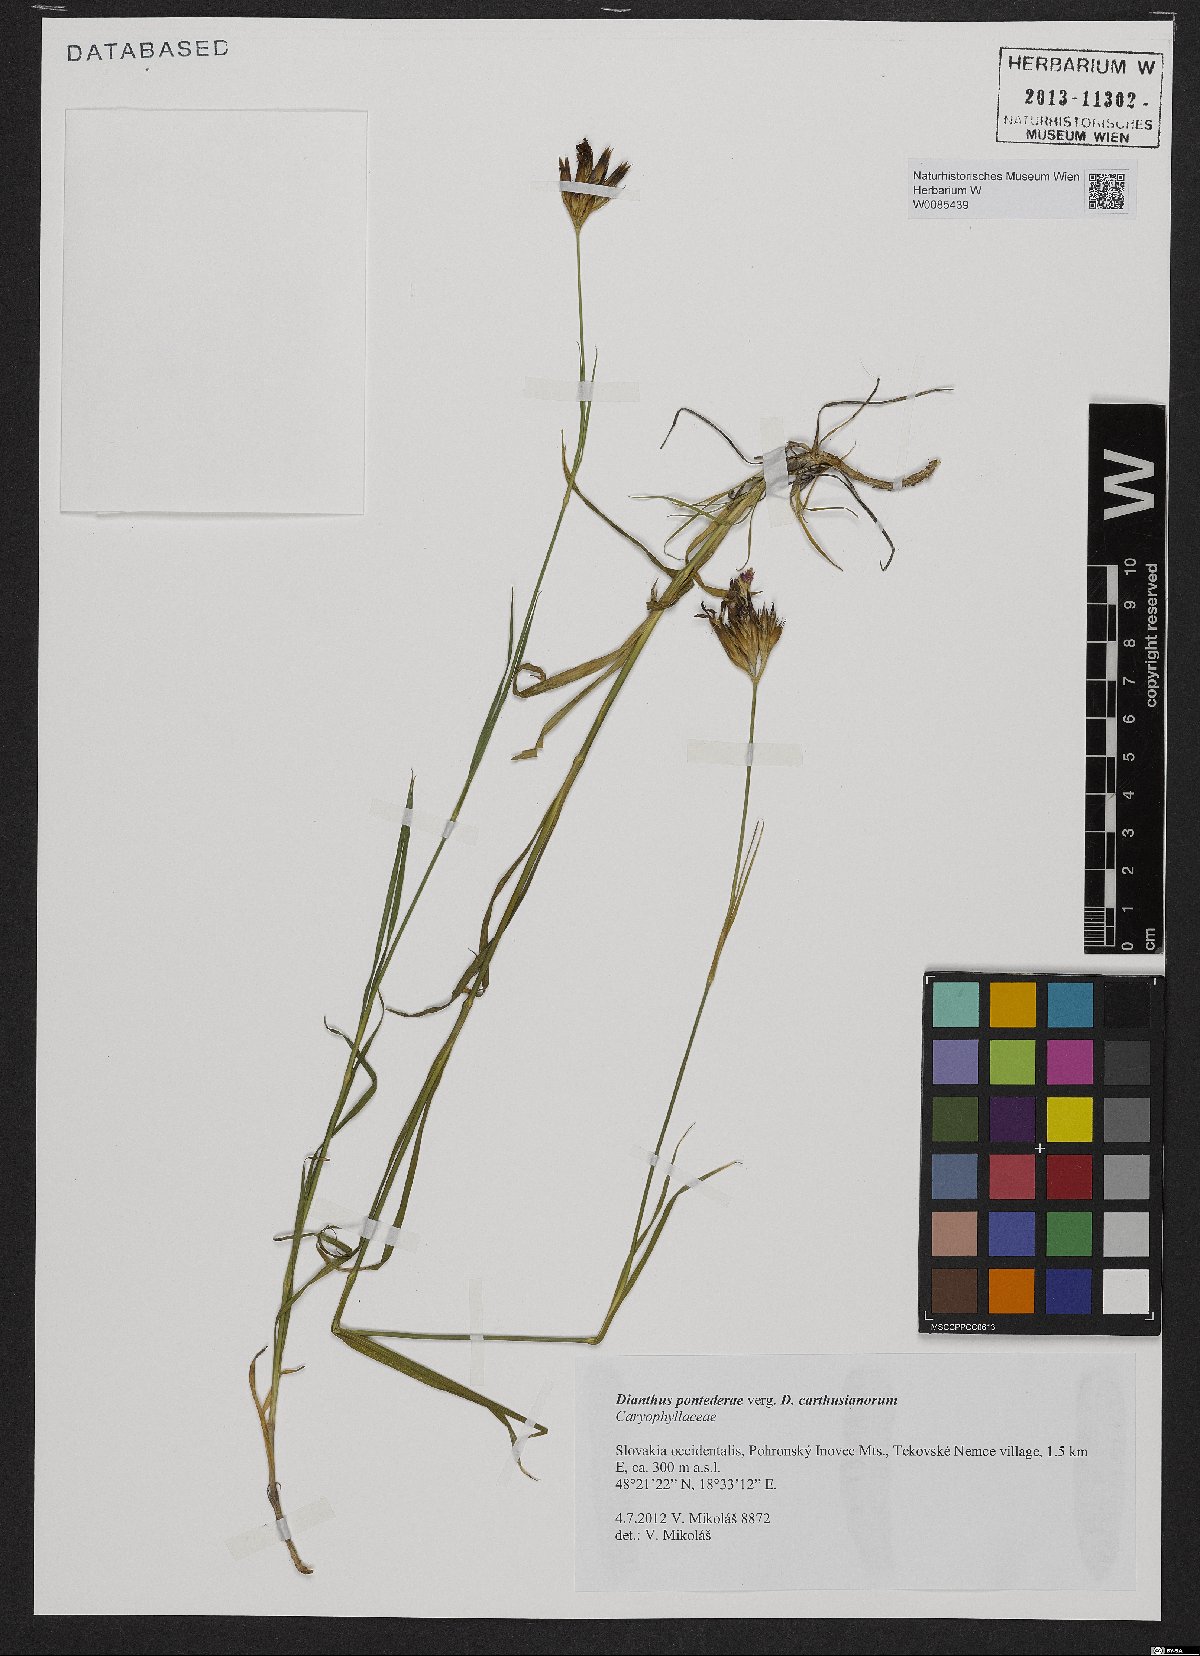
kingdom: Plantae
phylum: Tracheophyta
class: Magnoliopsida
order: Caryophyllales
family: Caryophyllaceae
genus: Dianthus
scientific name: Dianthus pontederae
